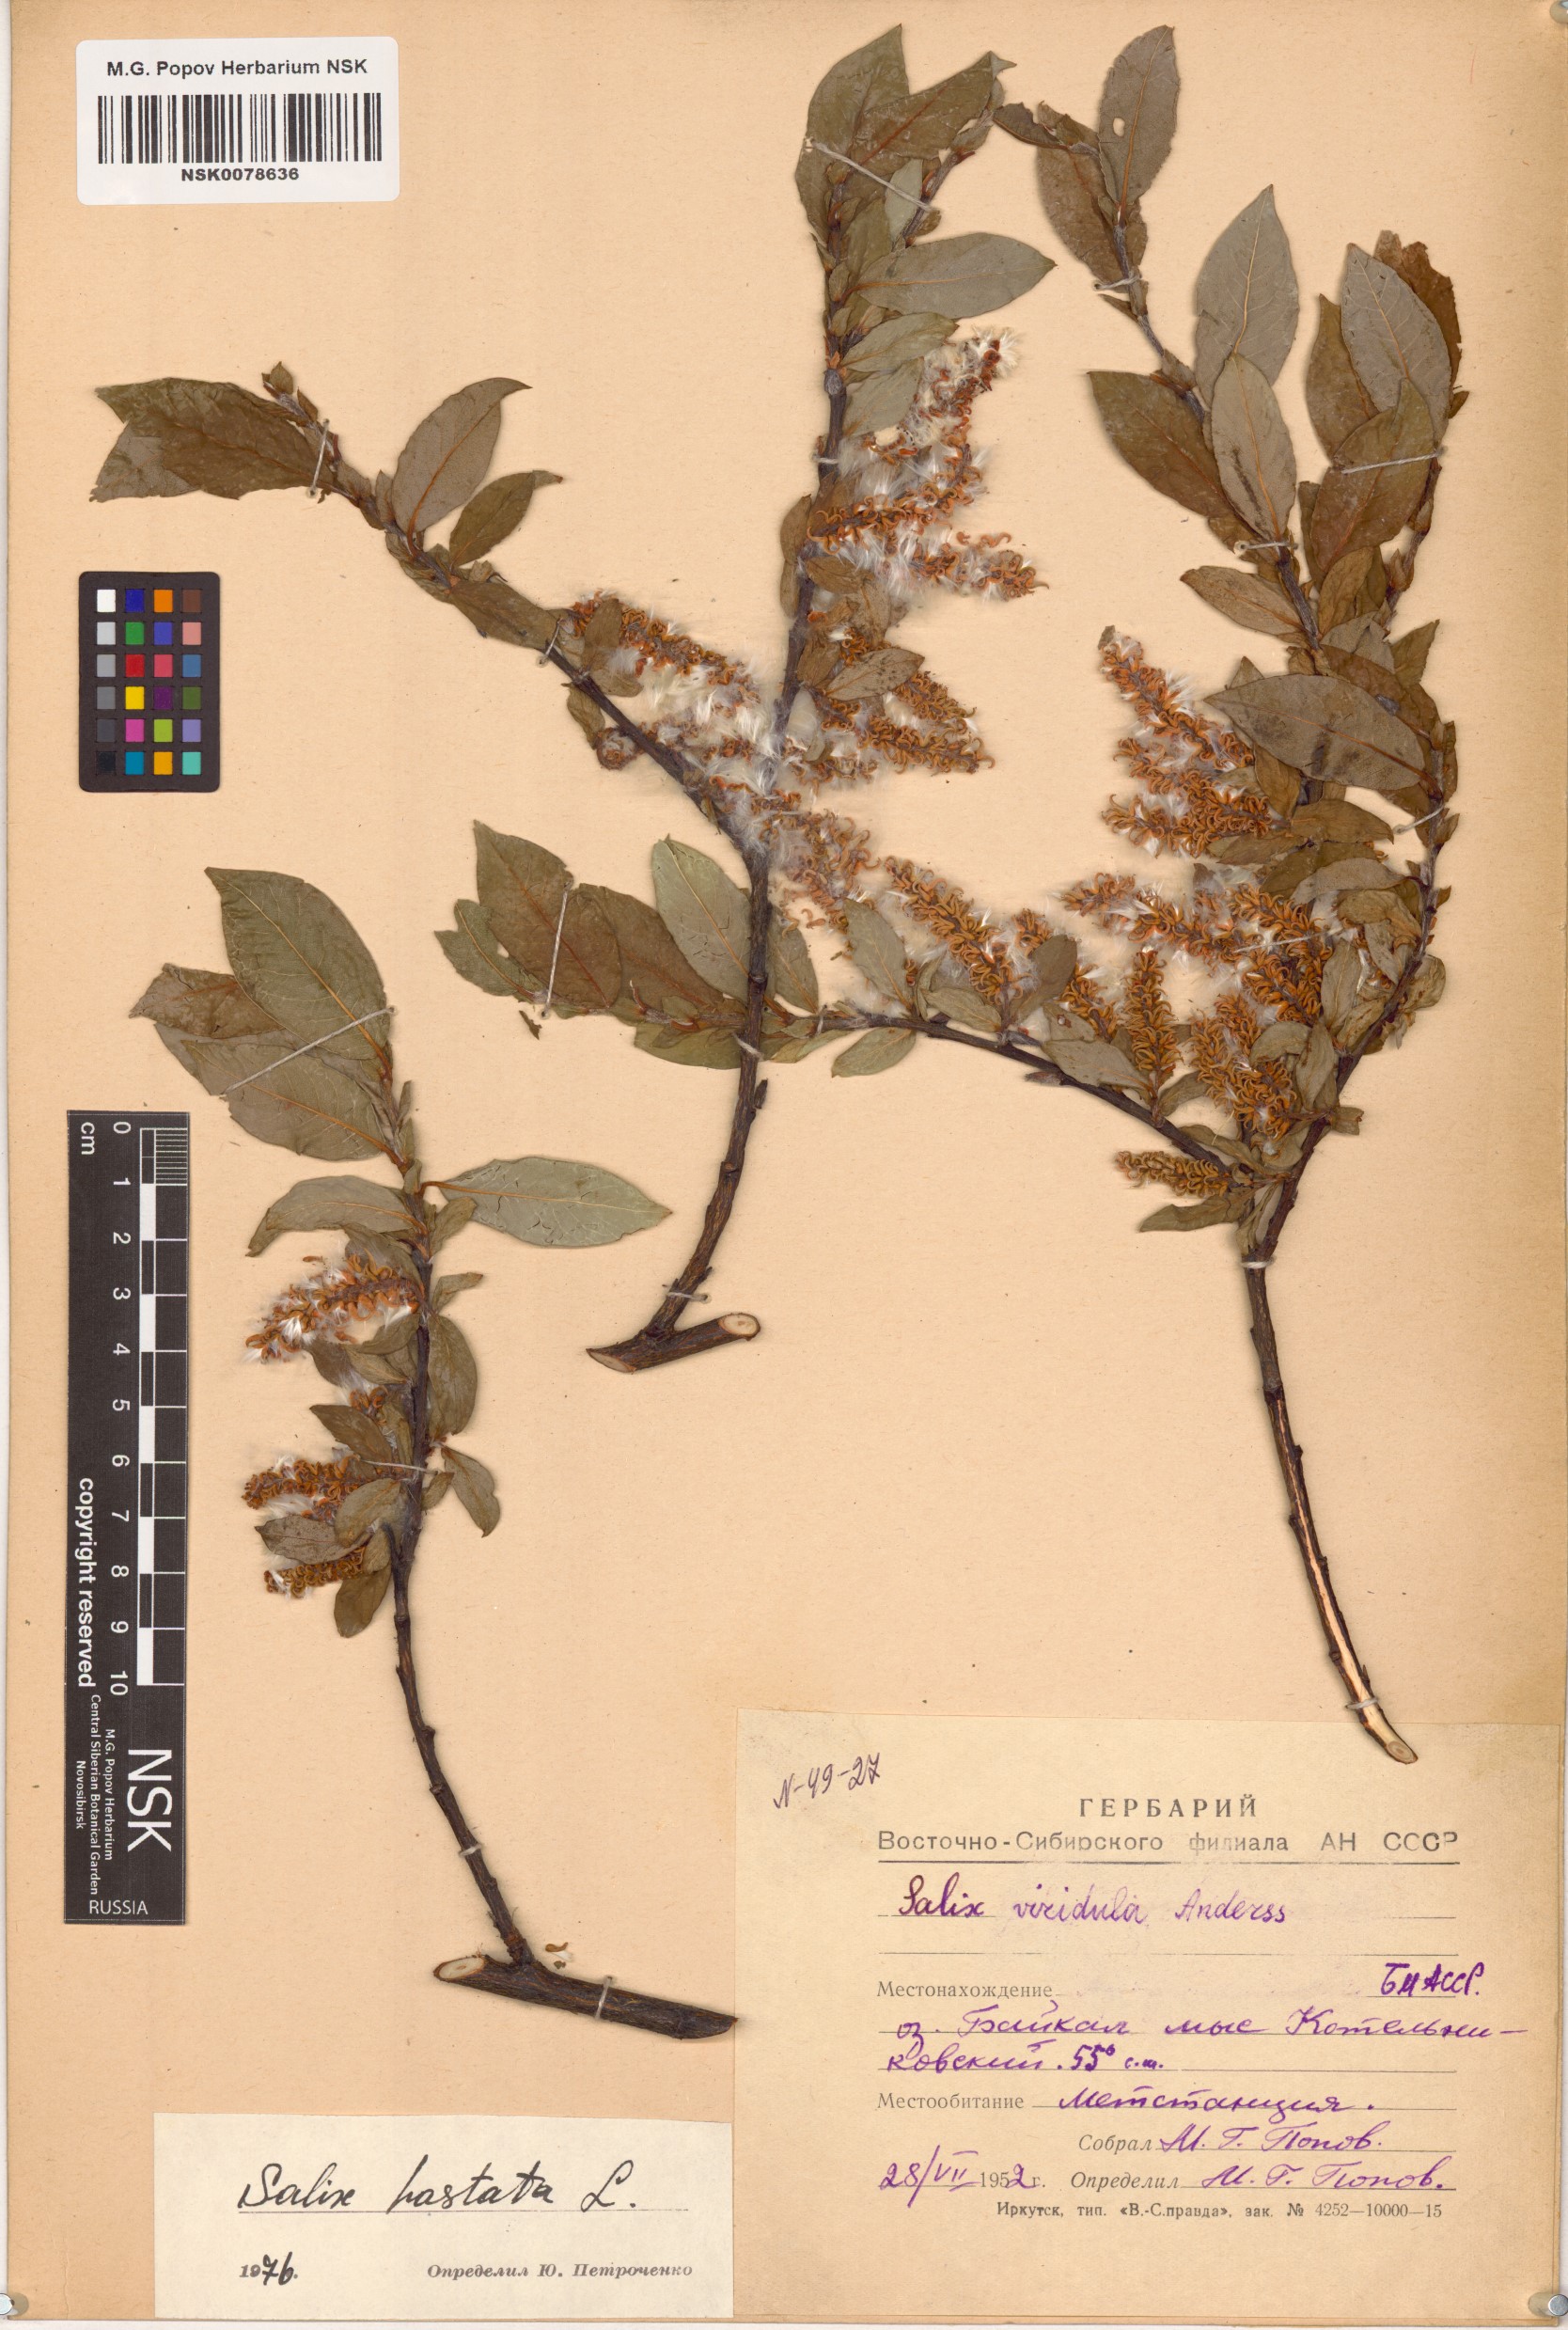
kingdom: Plantae
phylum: Tracheophyta
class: Magnoliopsida
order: Malpighiales
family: Salicaceae
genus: Salix
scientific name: Salix hastata
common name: Halberd willow
